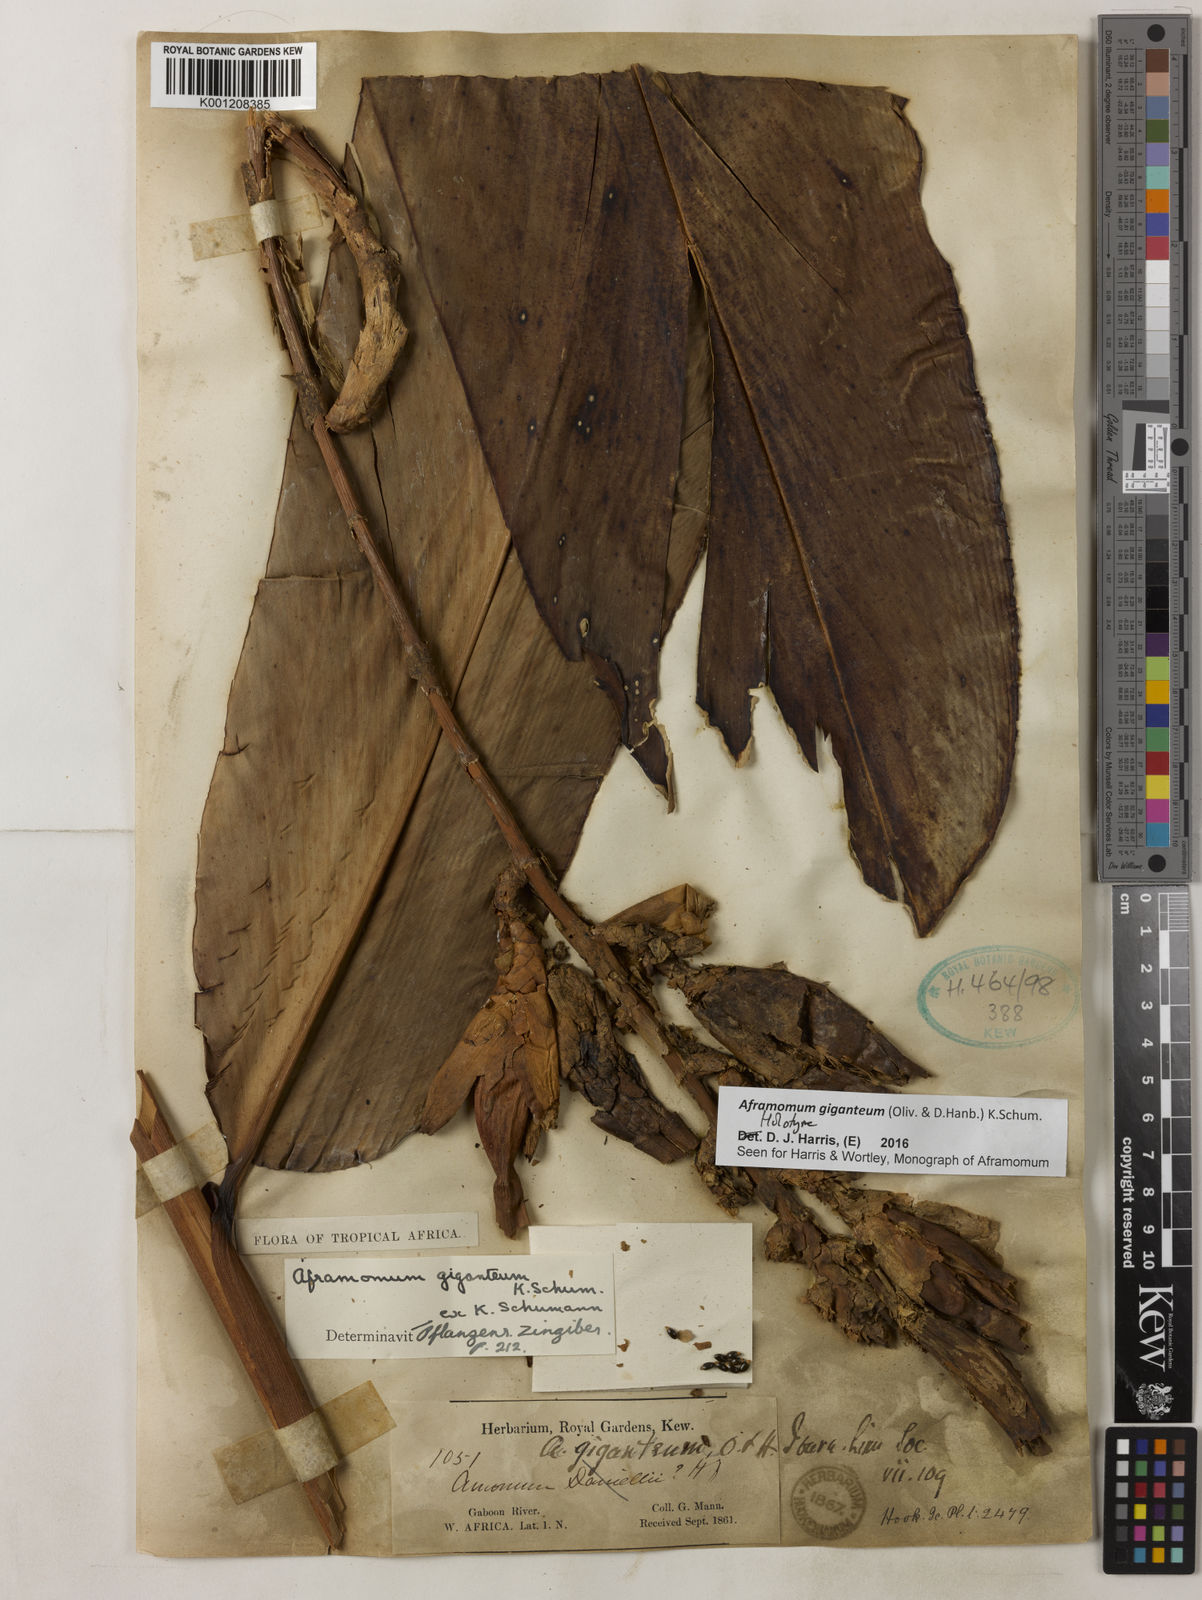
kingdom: Plantae
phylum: Tracheophyta
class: Liliopsida
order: Zingiberales
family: Zingiberaceae
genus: Aframomum
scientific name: Aframomum giganteum
